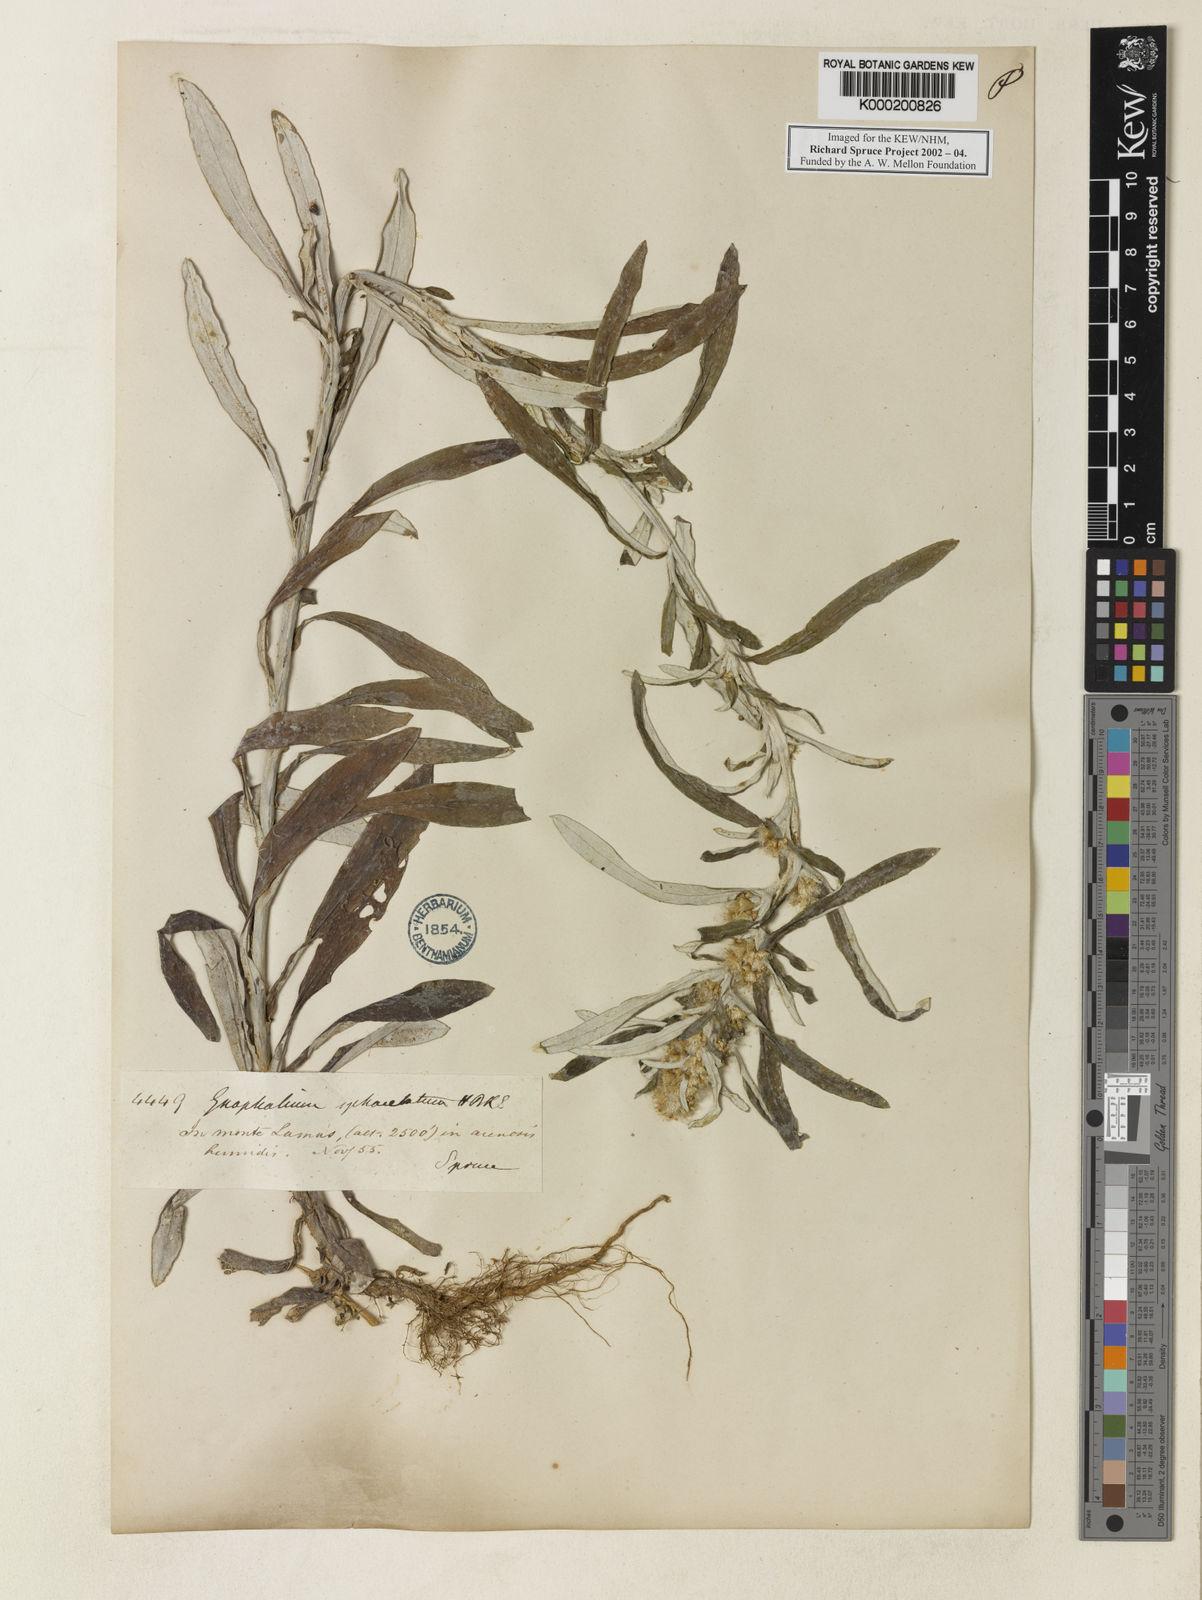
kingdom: Plantae
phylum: Tracheophyta
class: Magnoliopsida
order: Asterales
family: Asteraceae
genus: Pterocaulon
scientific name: Pterocaulon virgatum
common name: Wand blackroot
